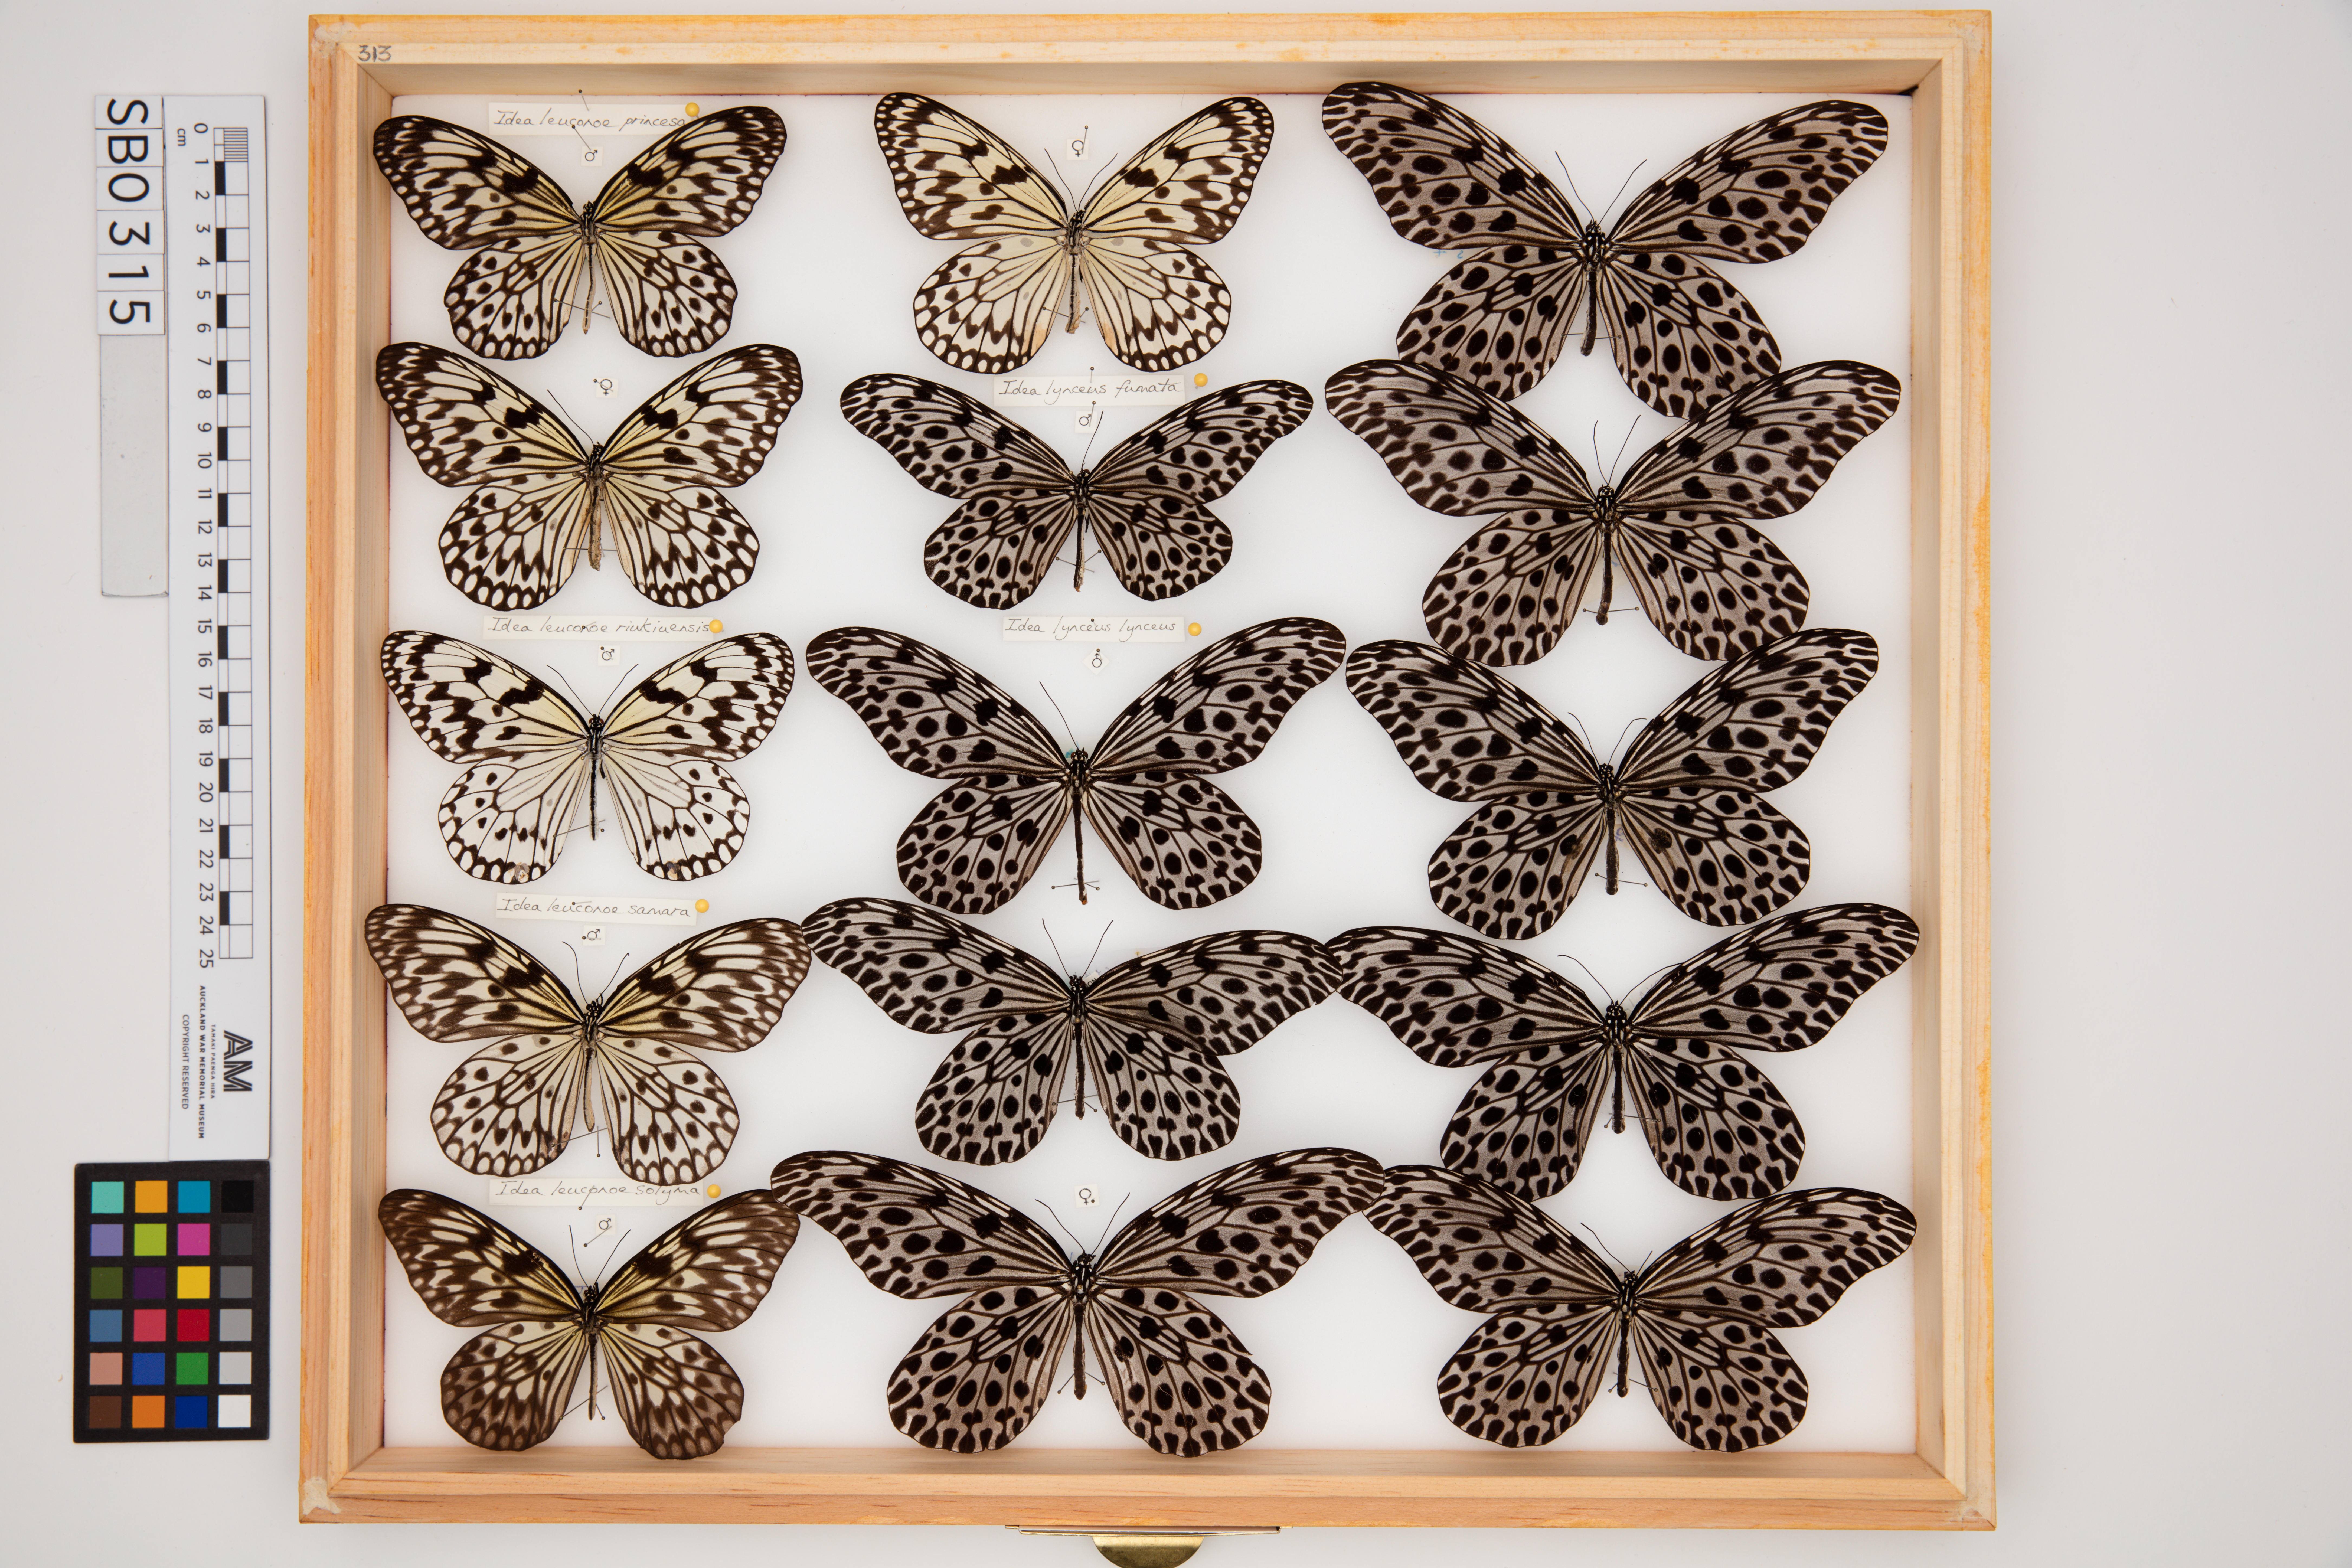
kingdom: Animalia
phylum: Arthropoda
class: Insecta
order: Lepidoptera
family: Nymphalidae
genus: Idea
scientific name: Idea lynceus
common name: Giant tree nymph
